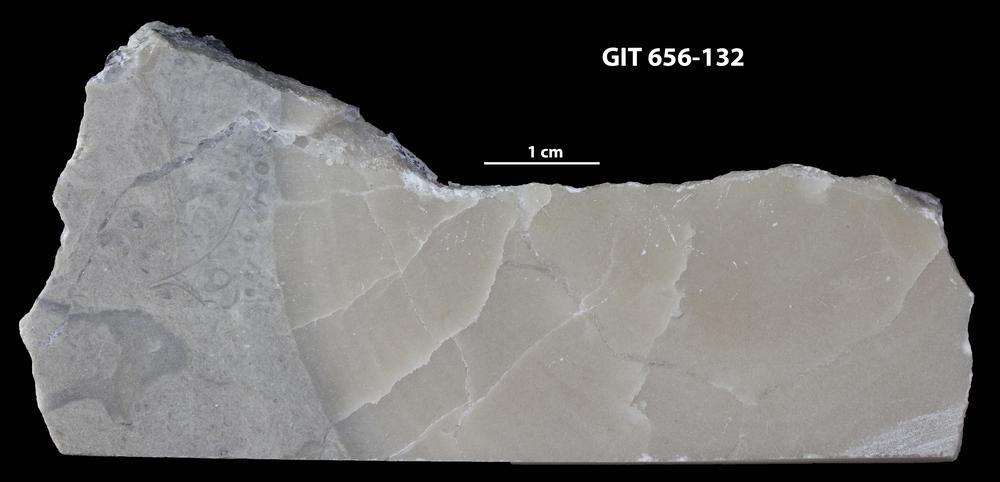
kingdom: Animalia
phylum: Porifera
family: Actinostromatidae
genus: Plectostroma
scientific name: Plectostroma
